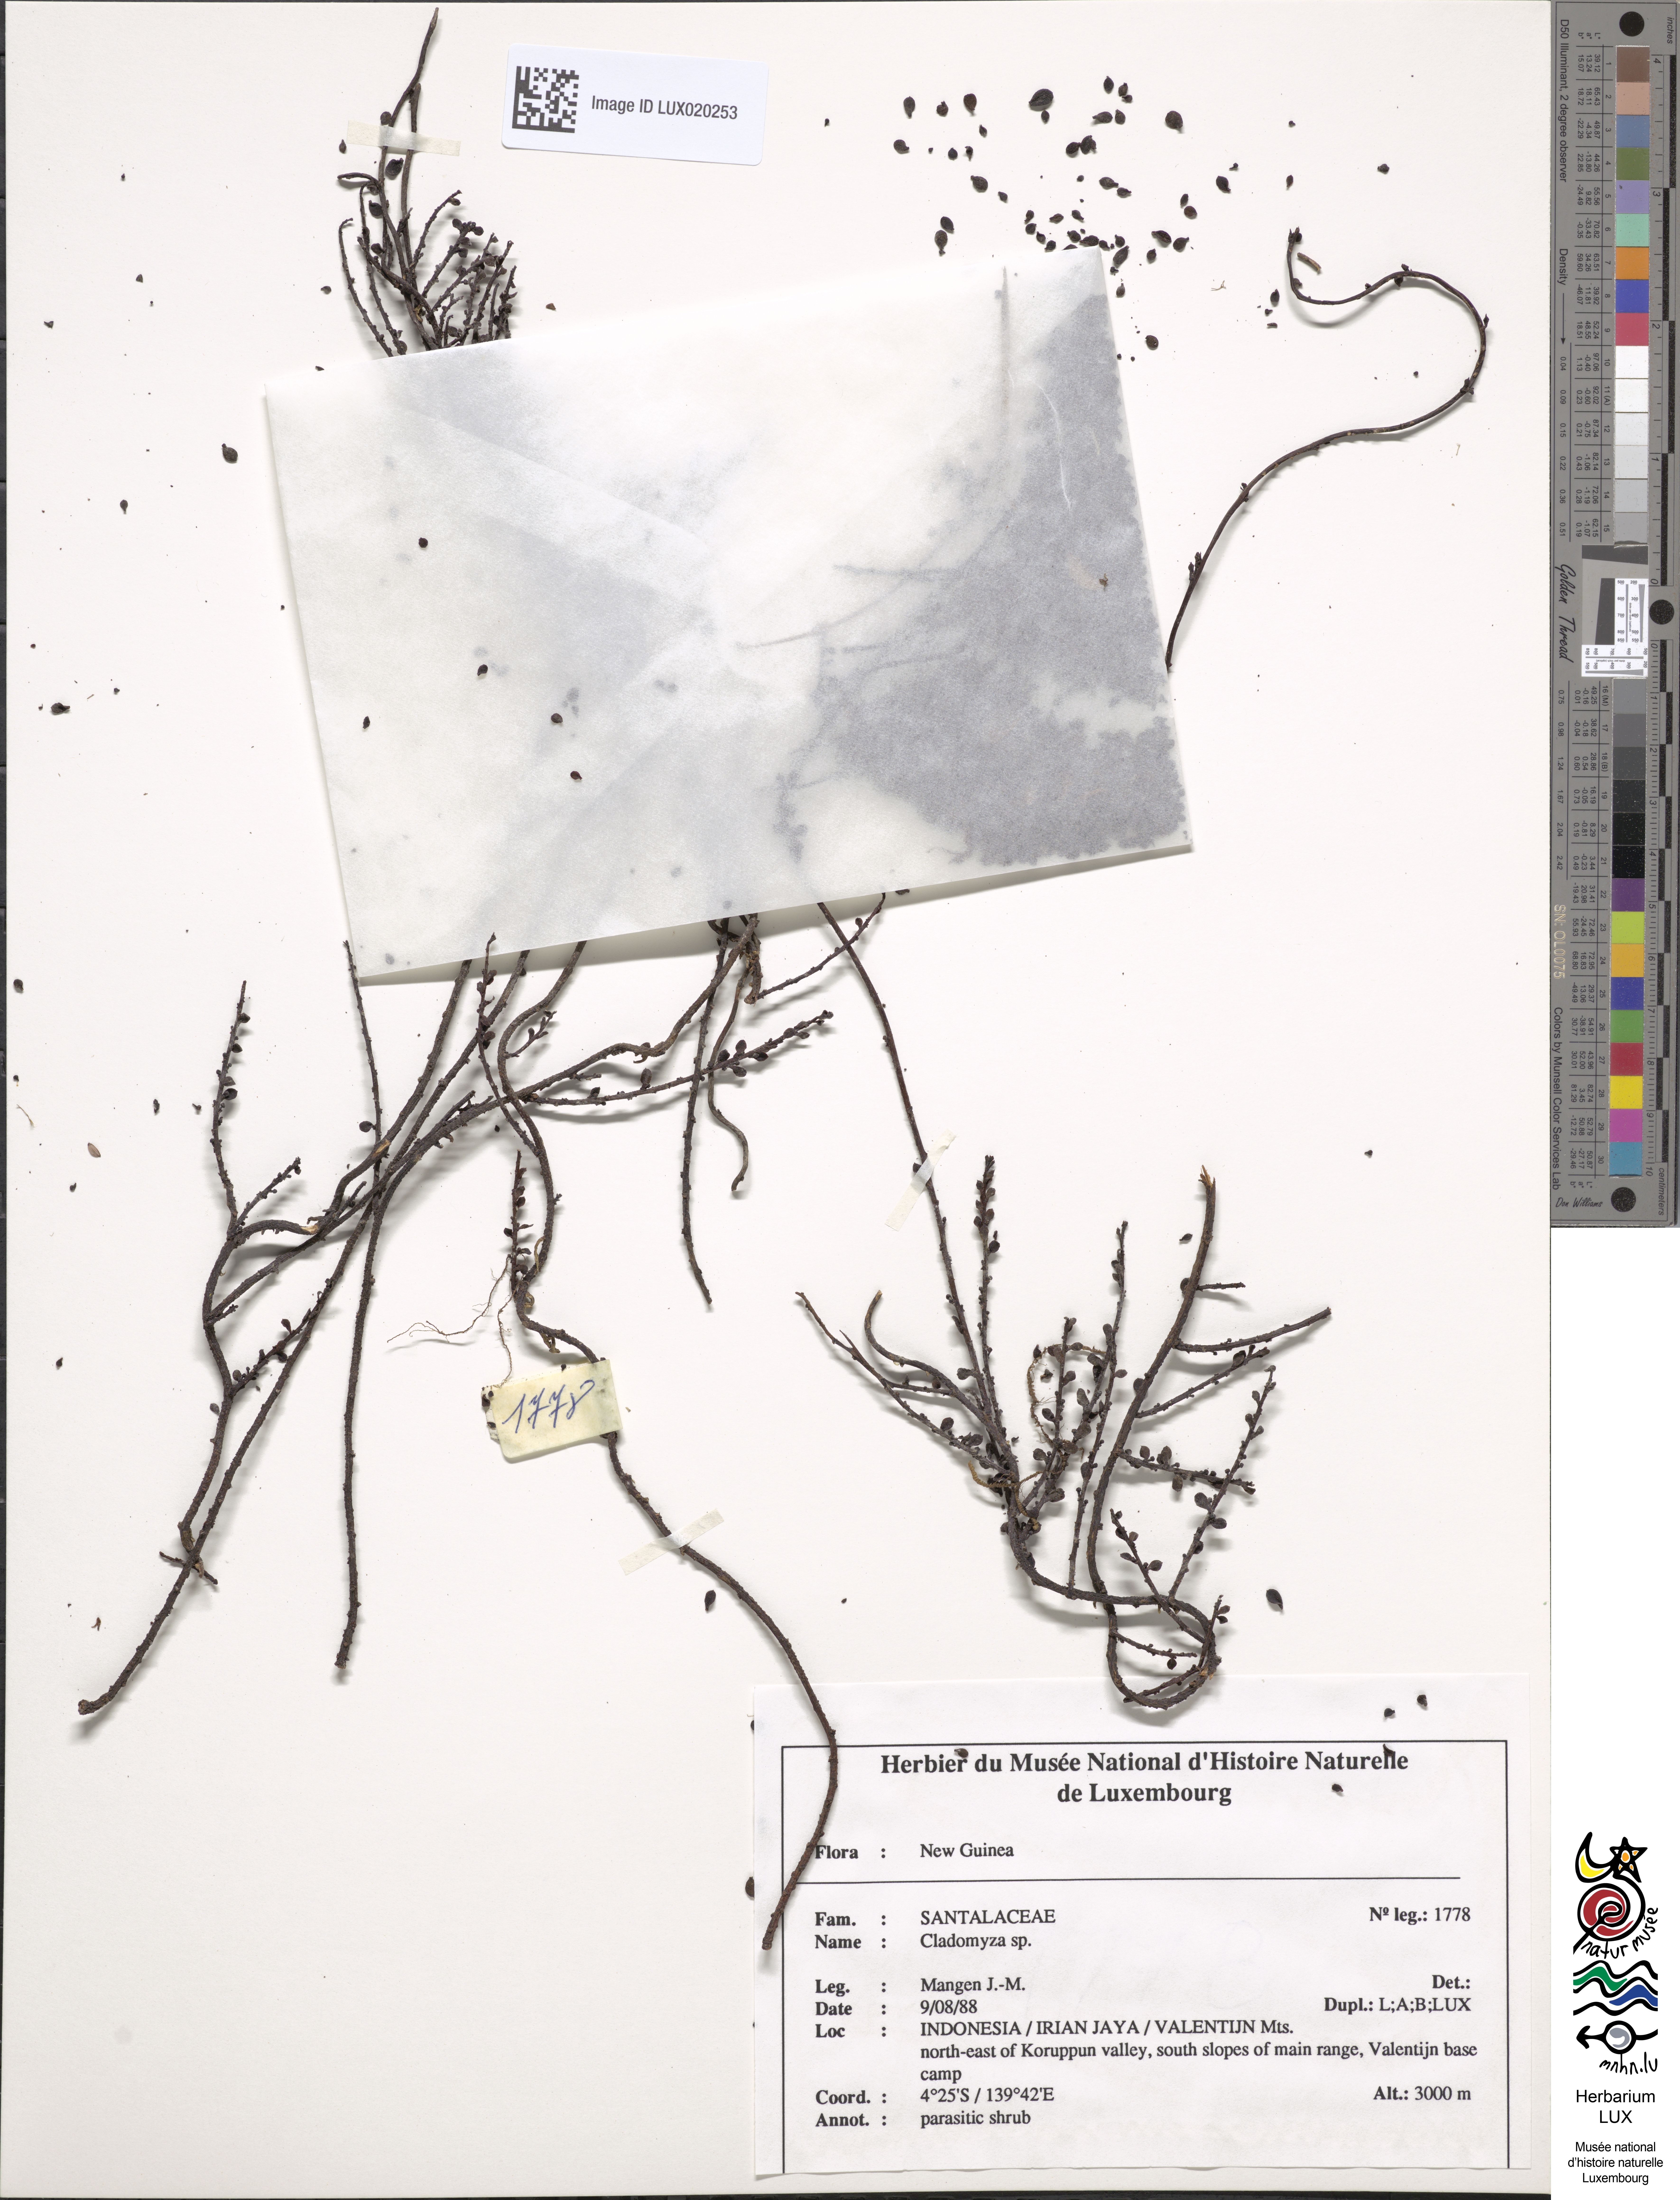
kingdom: Plantae
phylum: Tracheophyta
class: Magnoliopsida
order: Santalales
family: Amphorogynaceae
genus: Cladomyza
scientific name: Cladomyza
